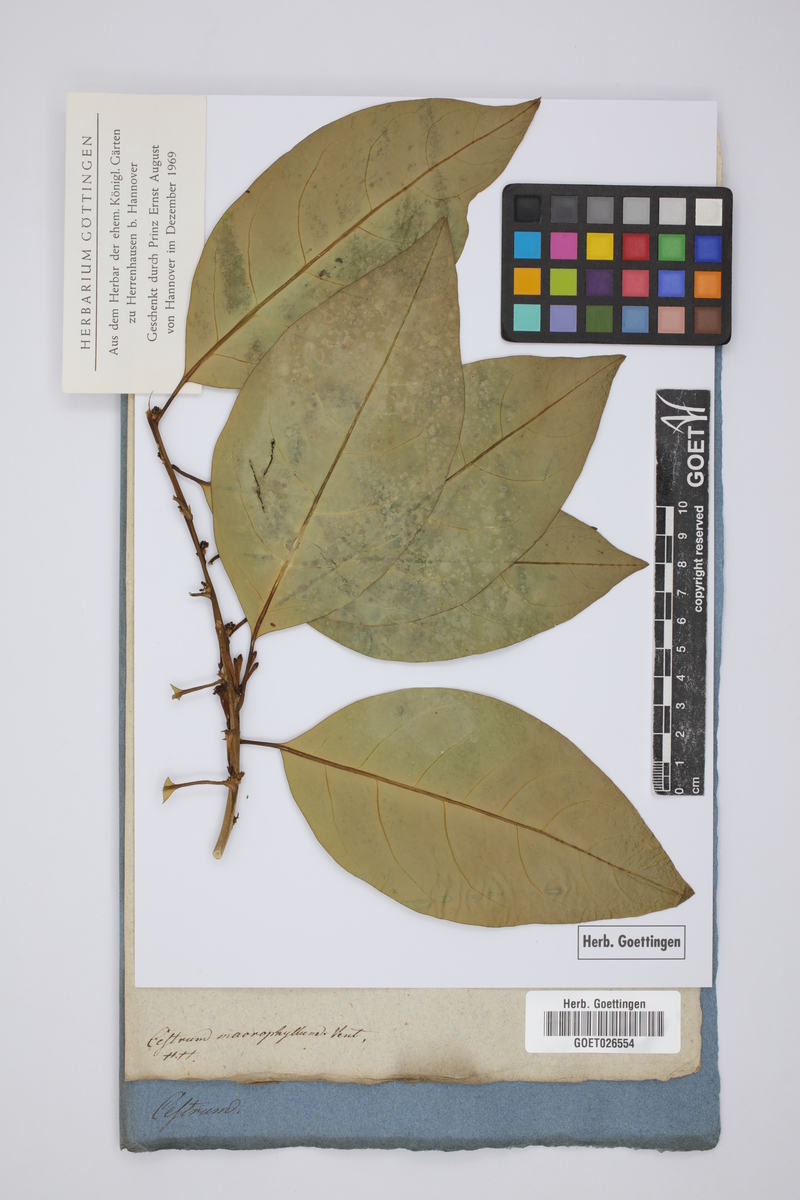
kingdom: Plantae
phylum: Tracheophyta
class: Magnoliopsida
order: Solanales
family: Solanaceae
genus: Cestrum
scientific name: Cestrum macrophyllum
